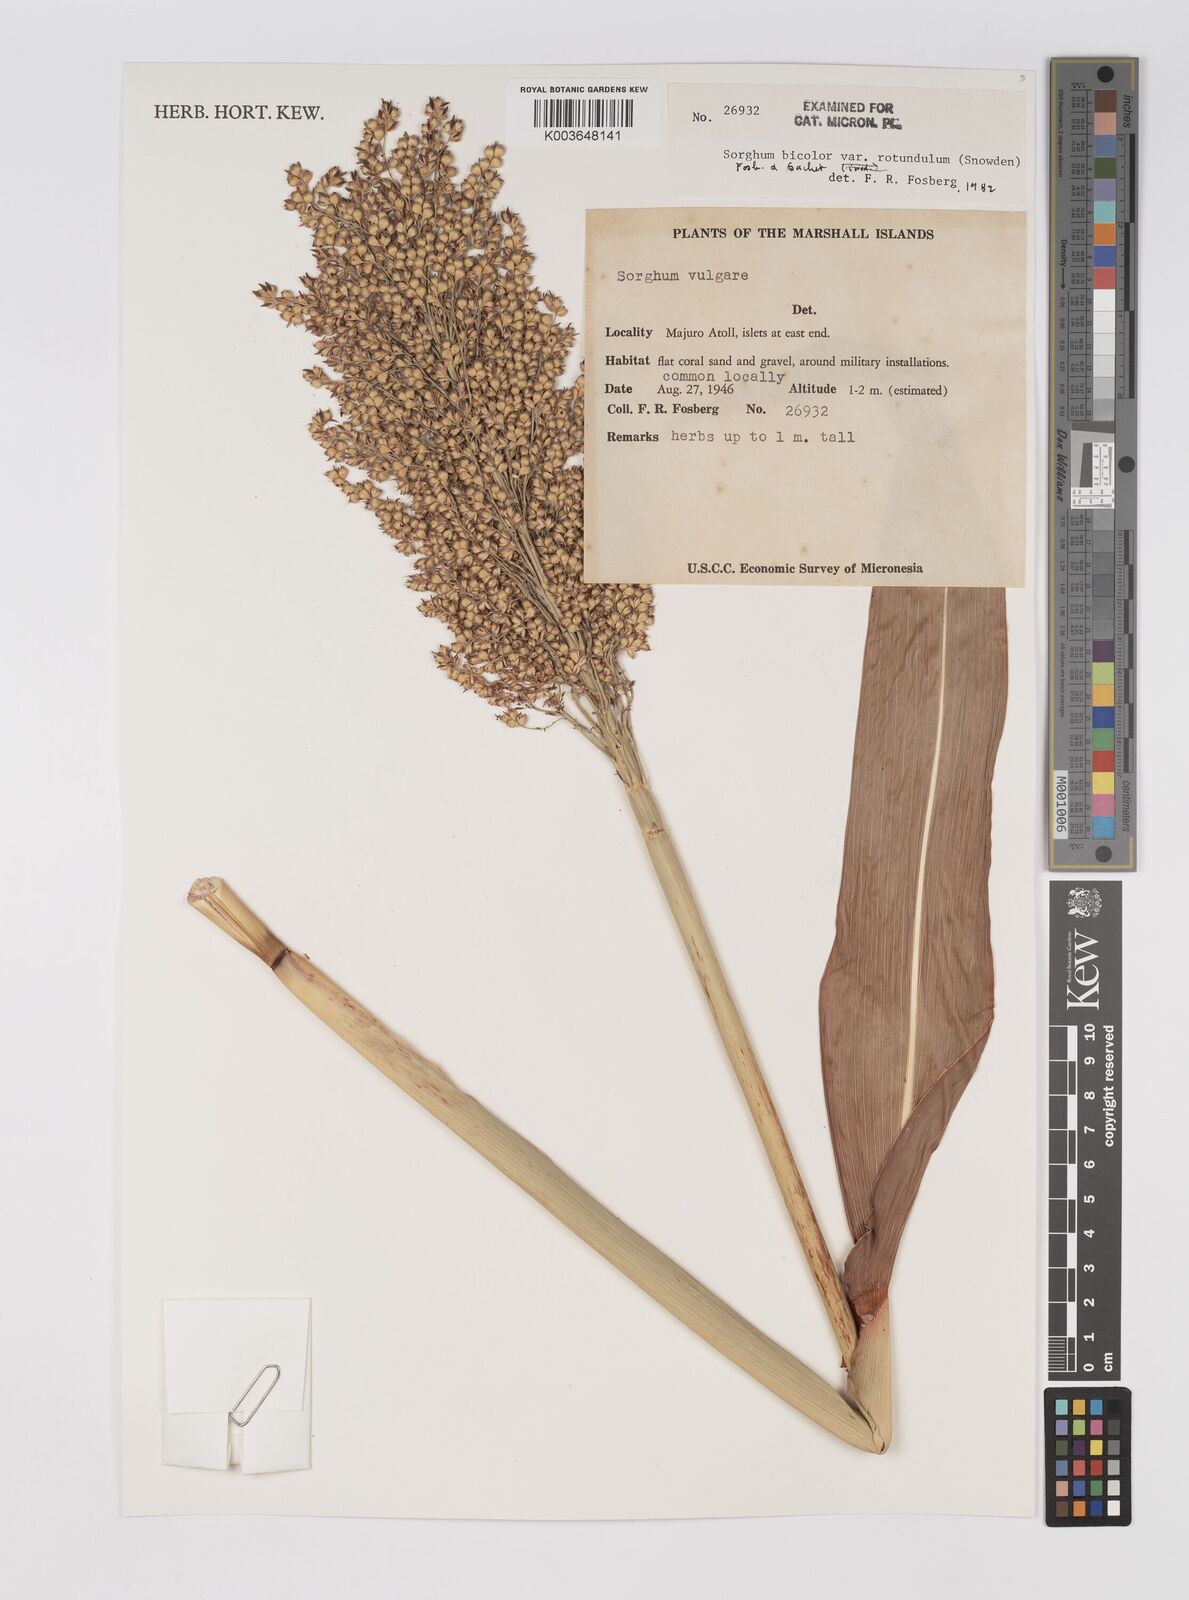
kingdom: Plantae
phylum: Tracheophyta
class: Liliopsida
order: Poales
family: Poaceae
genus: Sorghum
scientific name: Sorghum bicolor
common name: Sorghum
